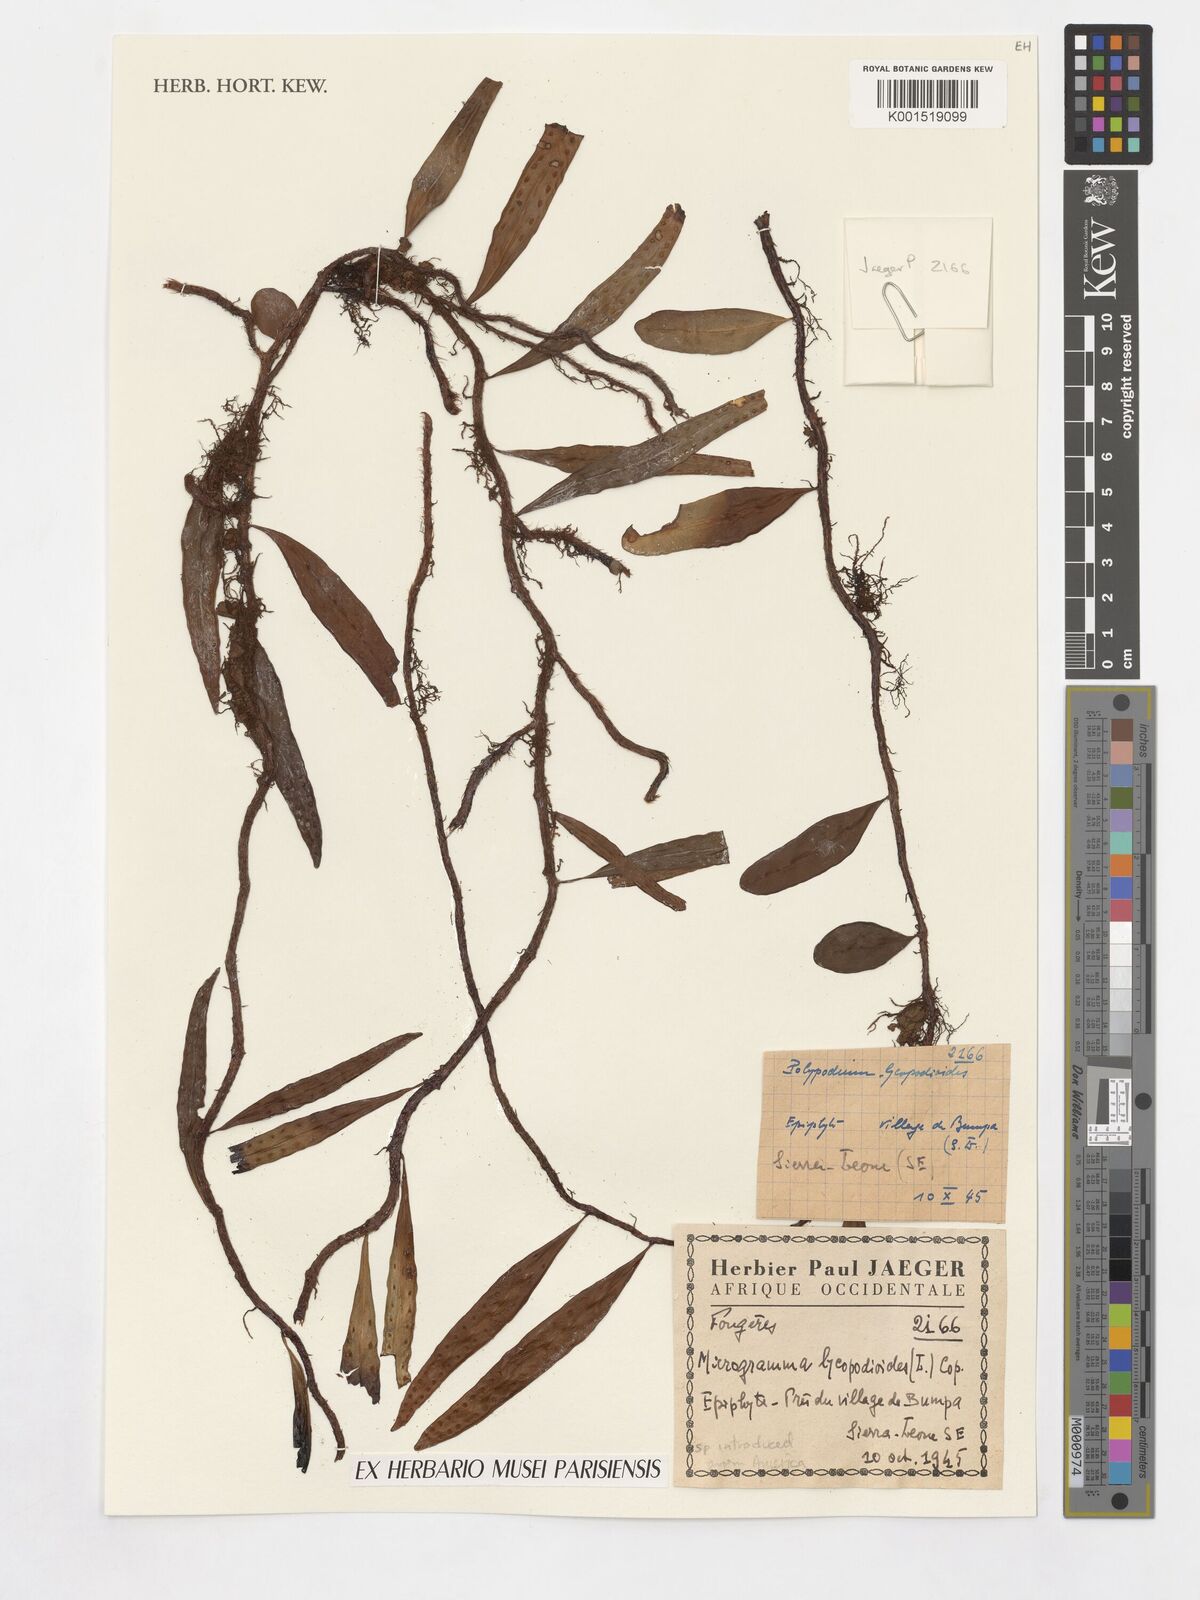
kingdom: Plantae
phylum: Tracheophyta
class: Polypodiopsida
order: Polypodiales
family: Polypodiaceae
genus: Microgramma
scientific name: Microgramma lycopodioides
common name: Bastard catclaw
